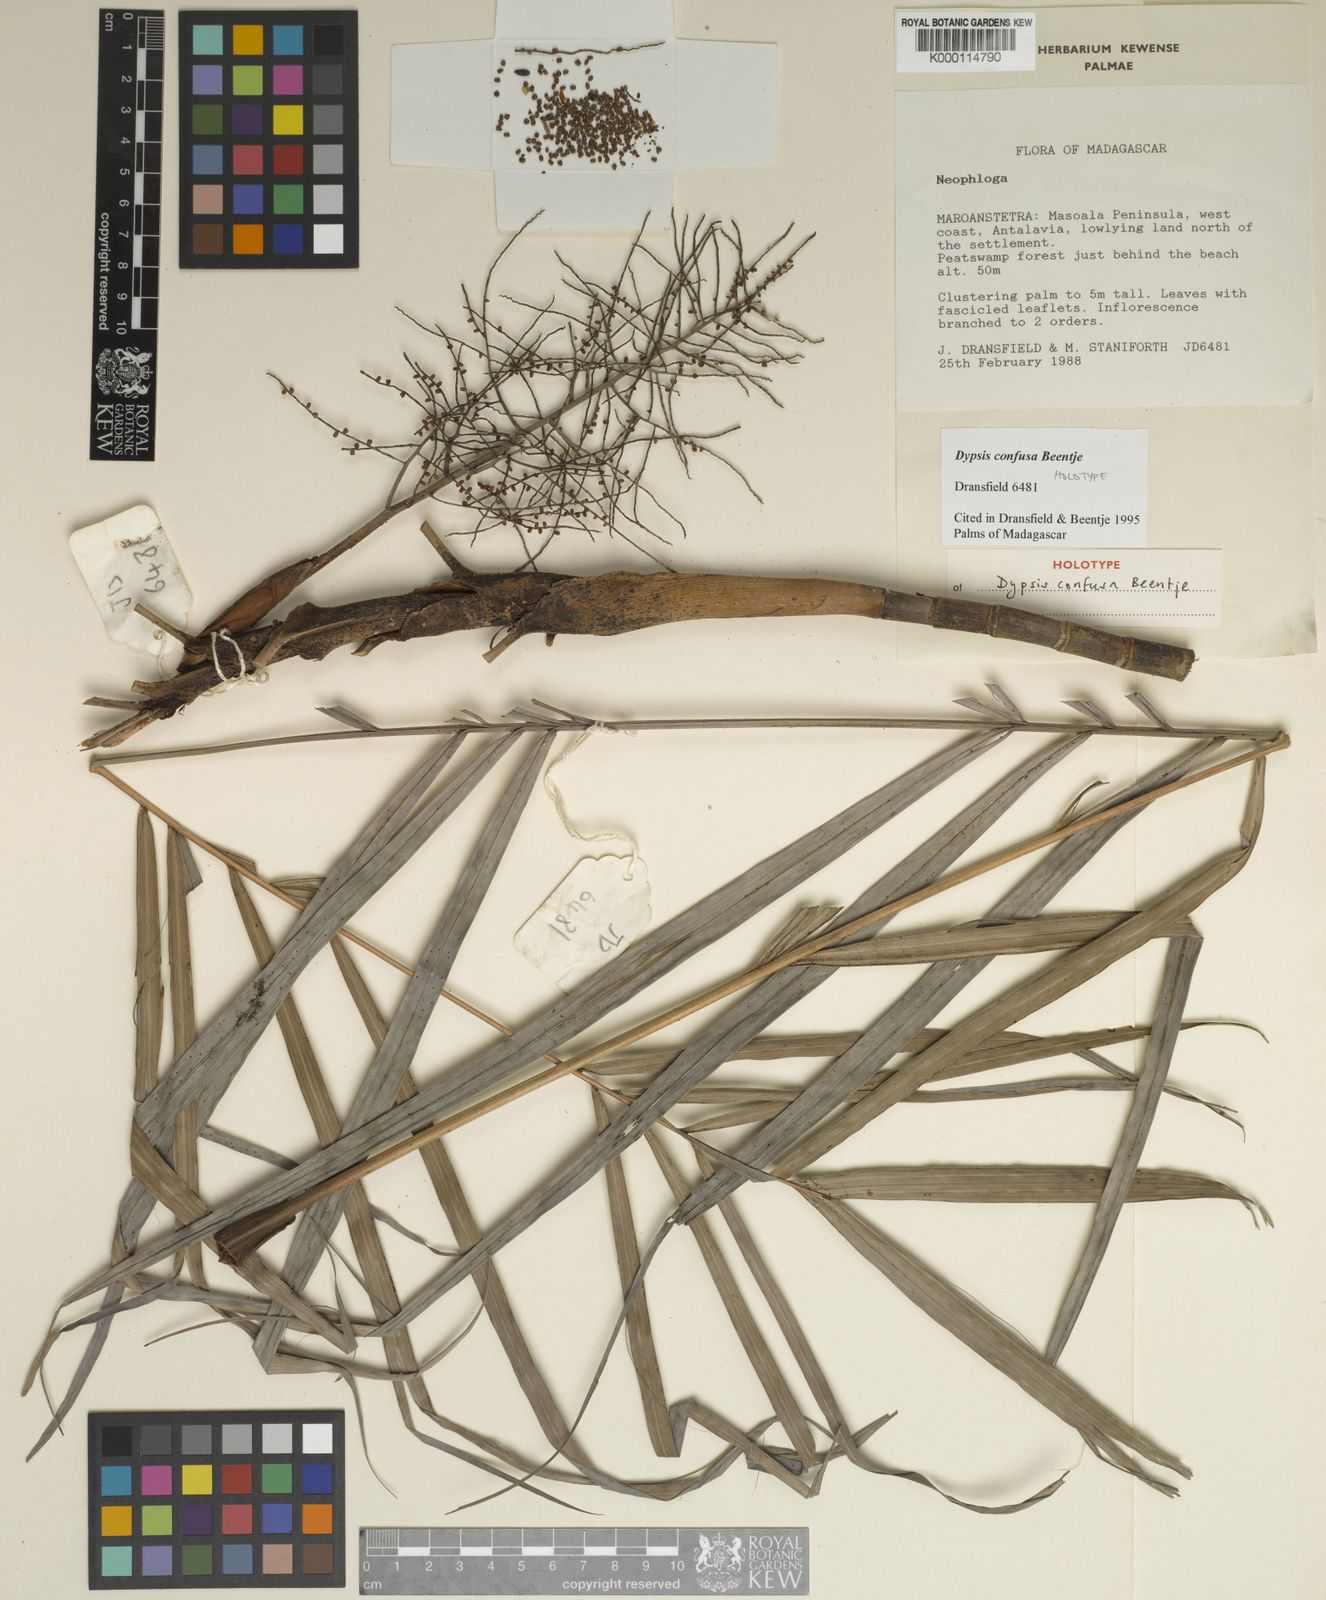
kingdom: Plantae
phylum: Tracheophyta
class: Liliopsida
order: Arecales
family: Arecaceae
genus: Dypsis
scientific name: Dypsis confusa
